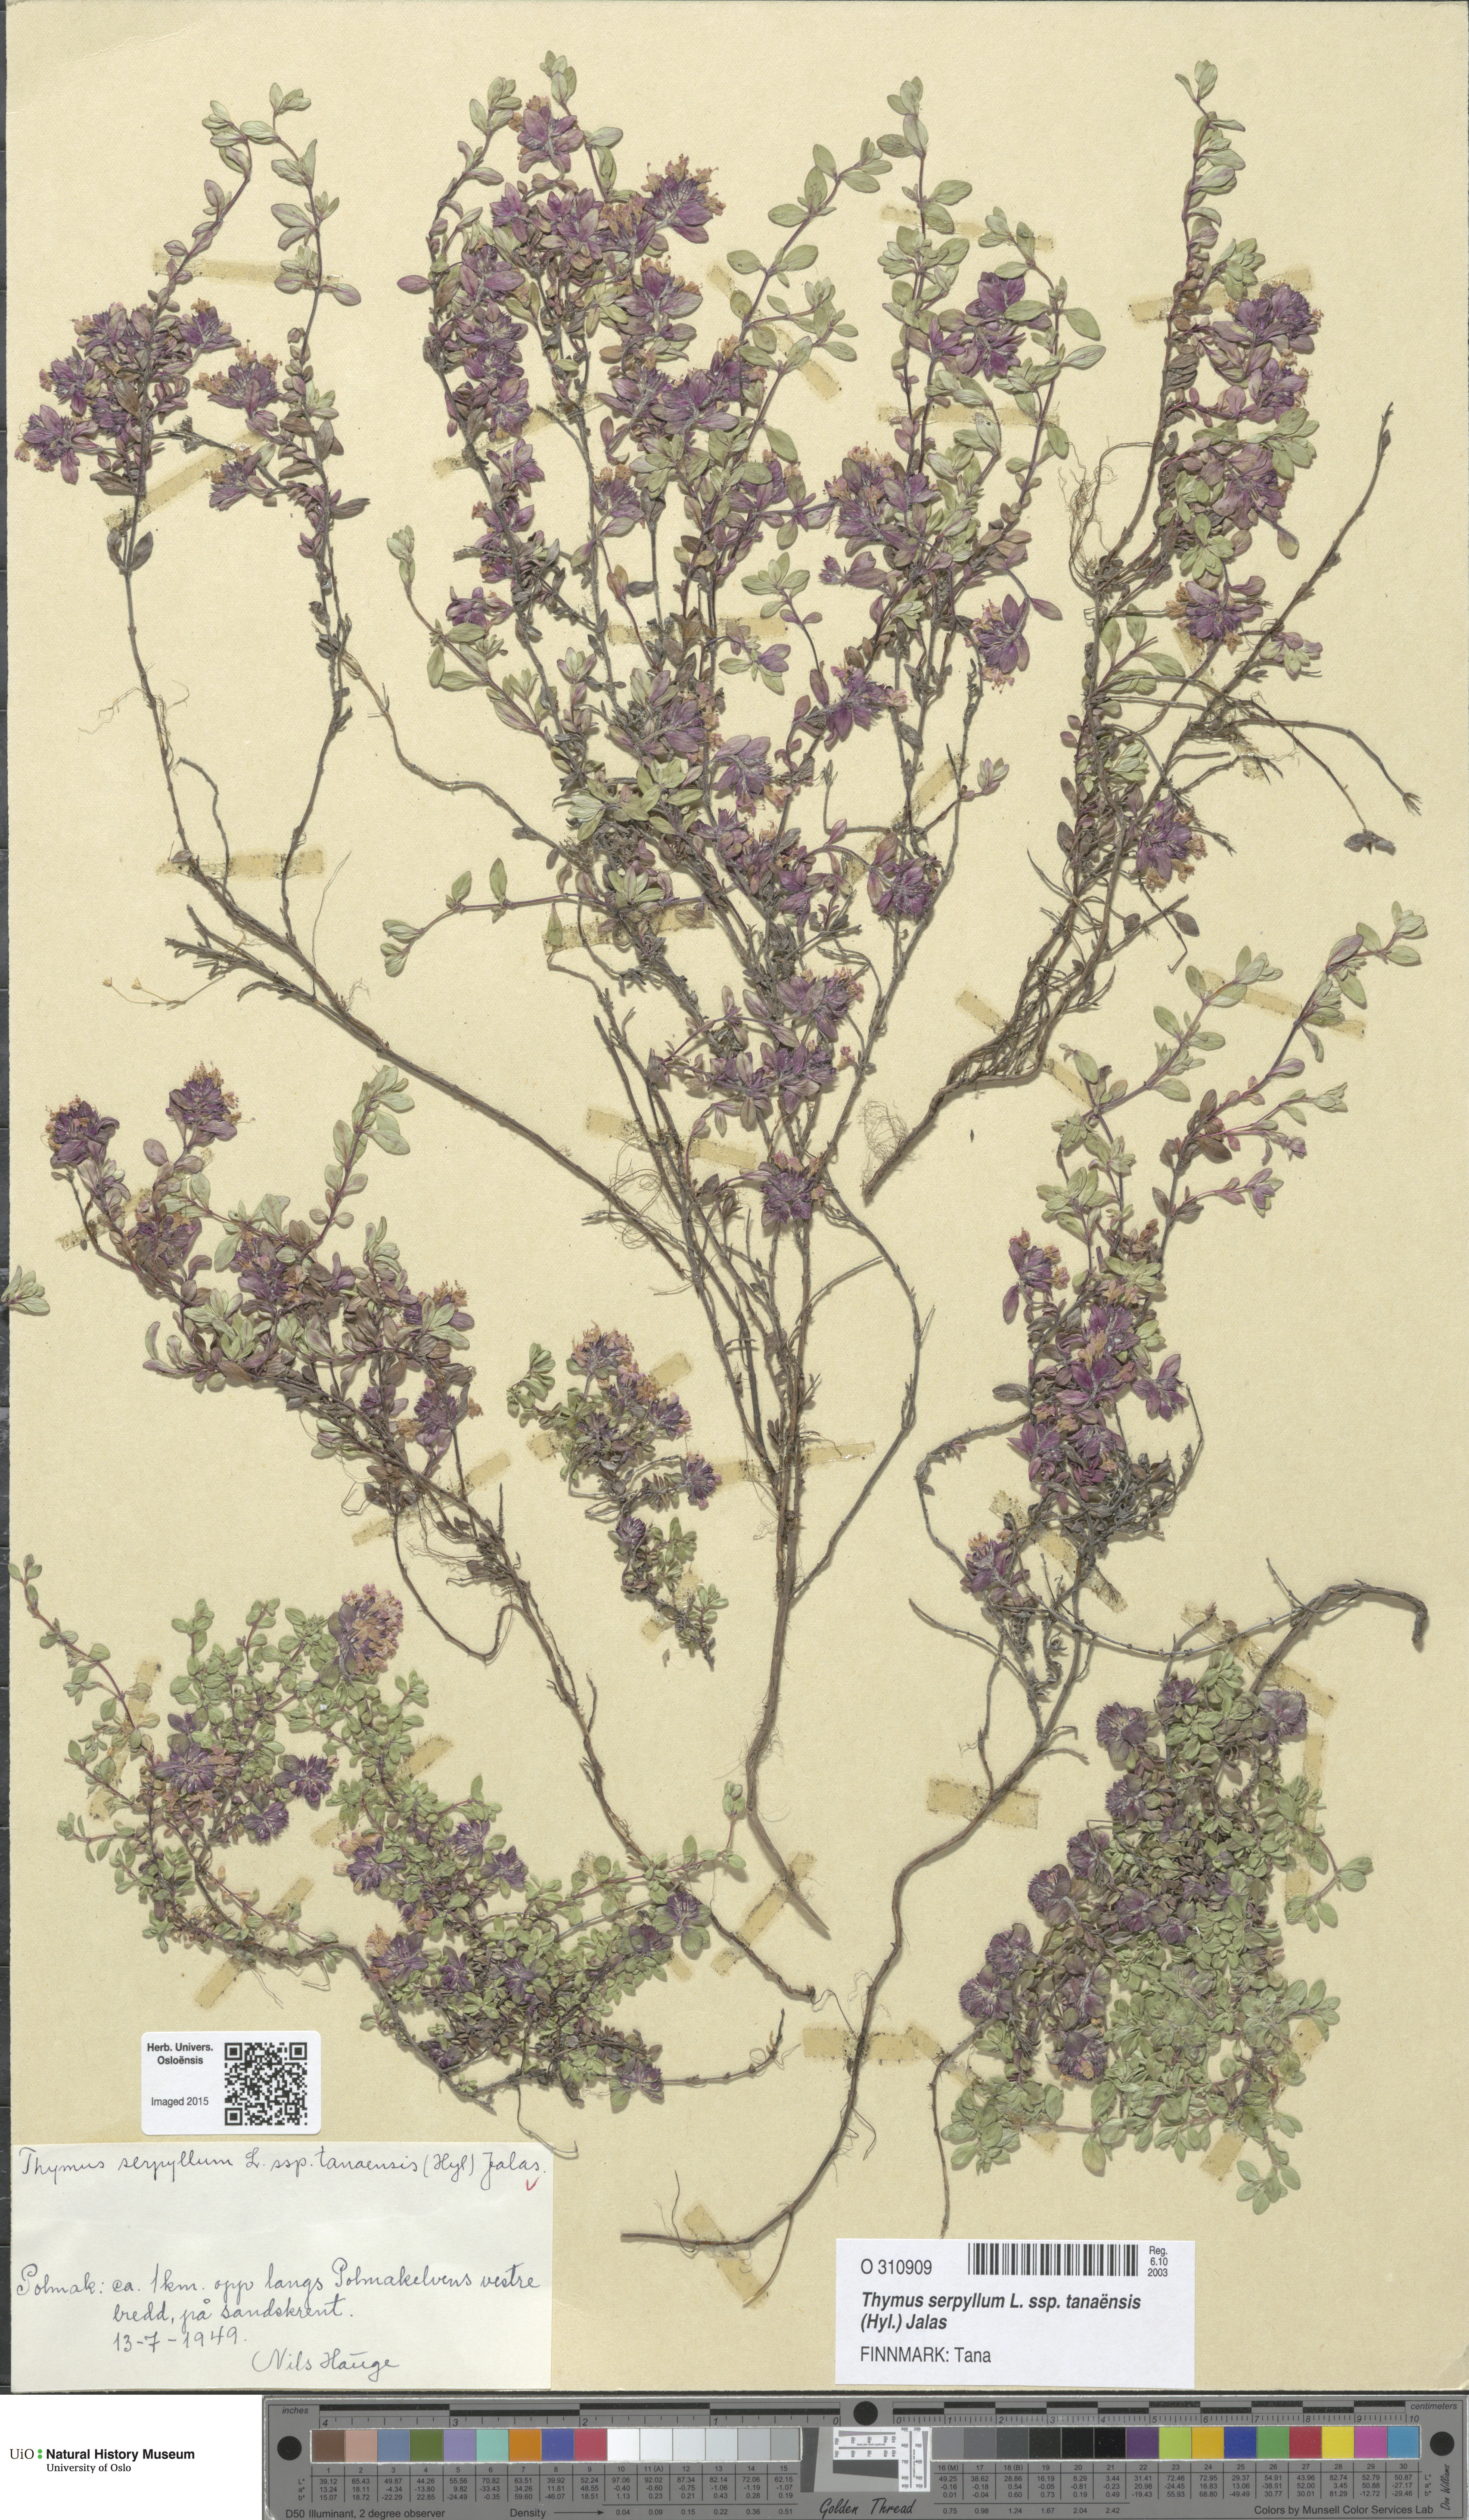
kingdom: Plantae
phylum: Tracheophyta
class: Magnoliopsida
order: Lamiales
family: Lamiaceae
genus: Thymus
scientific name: Thymus serpyllum
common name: Breckland thyme
